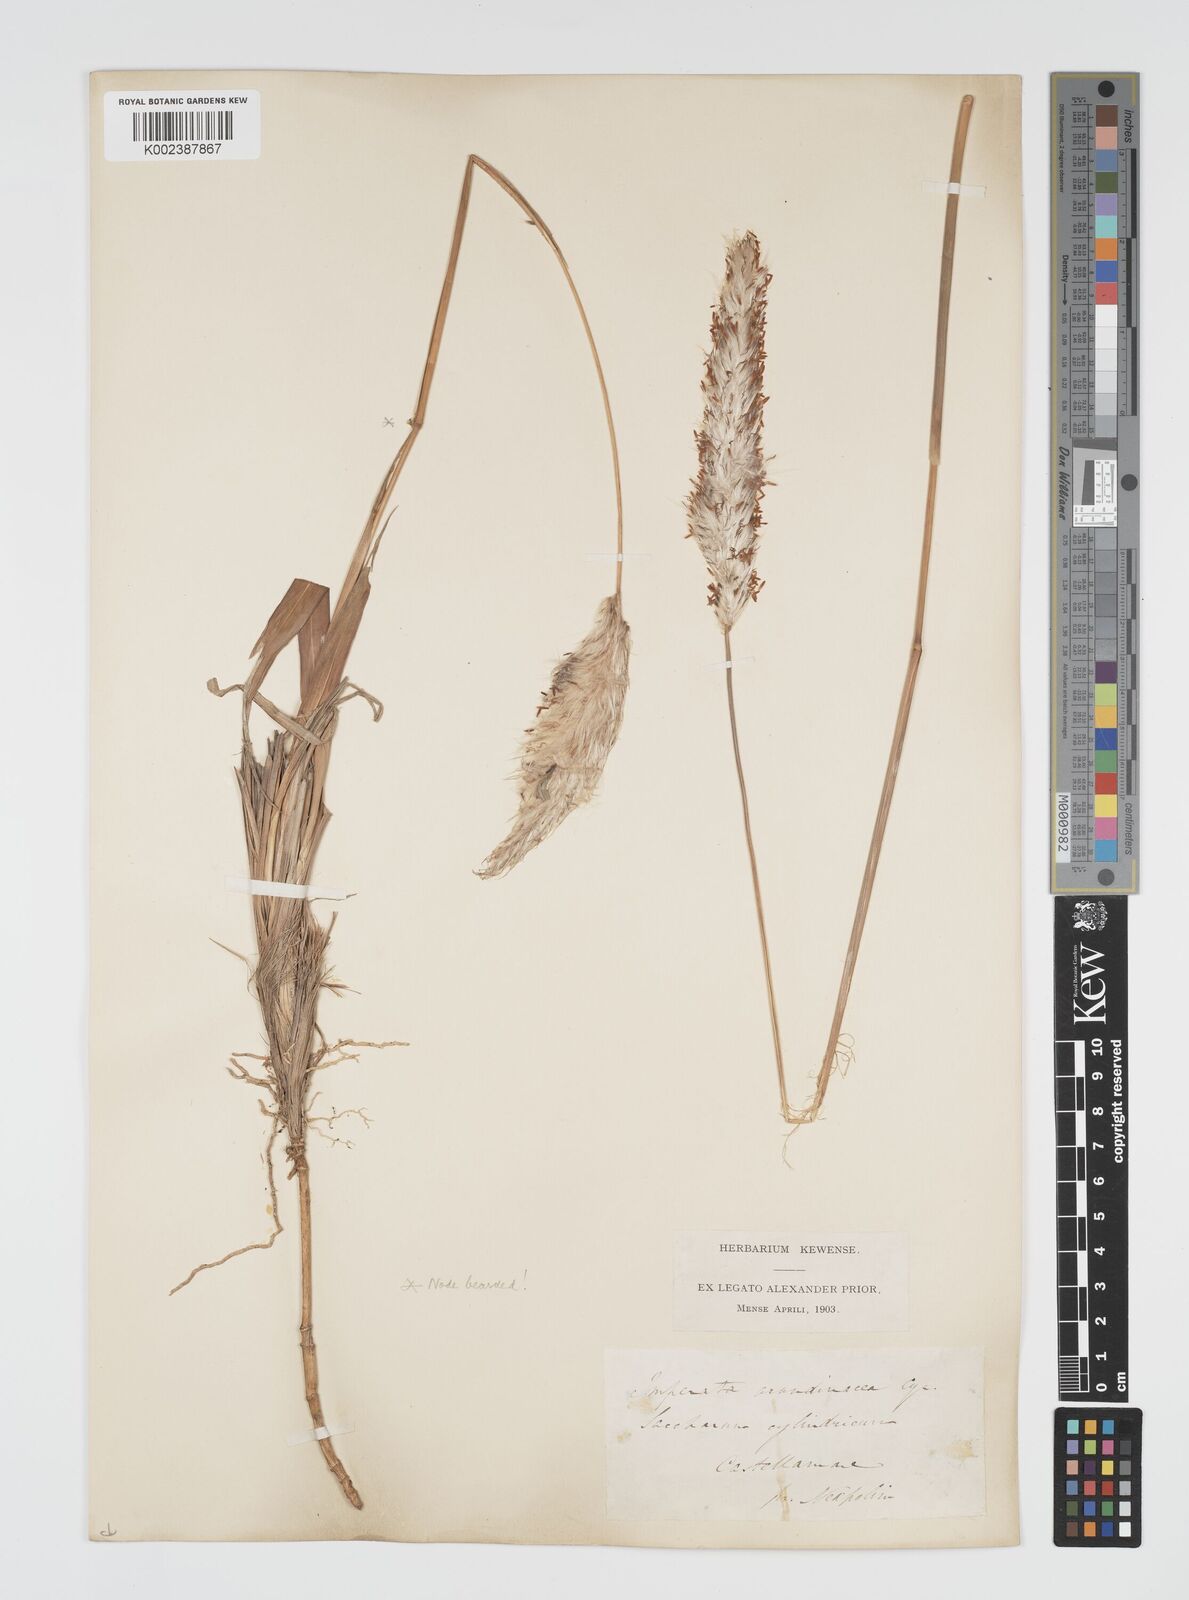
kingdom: Plantae
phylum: Tracheophyta
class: Liliopsida
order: Poales
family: Poaceae
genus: Imperata
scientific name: Imperata cylindrica
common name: Cogongrass
